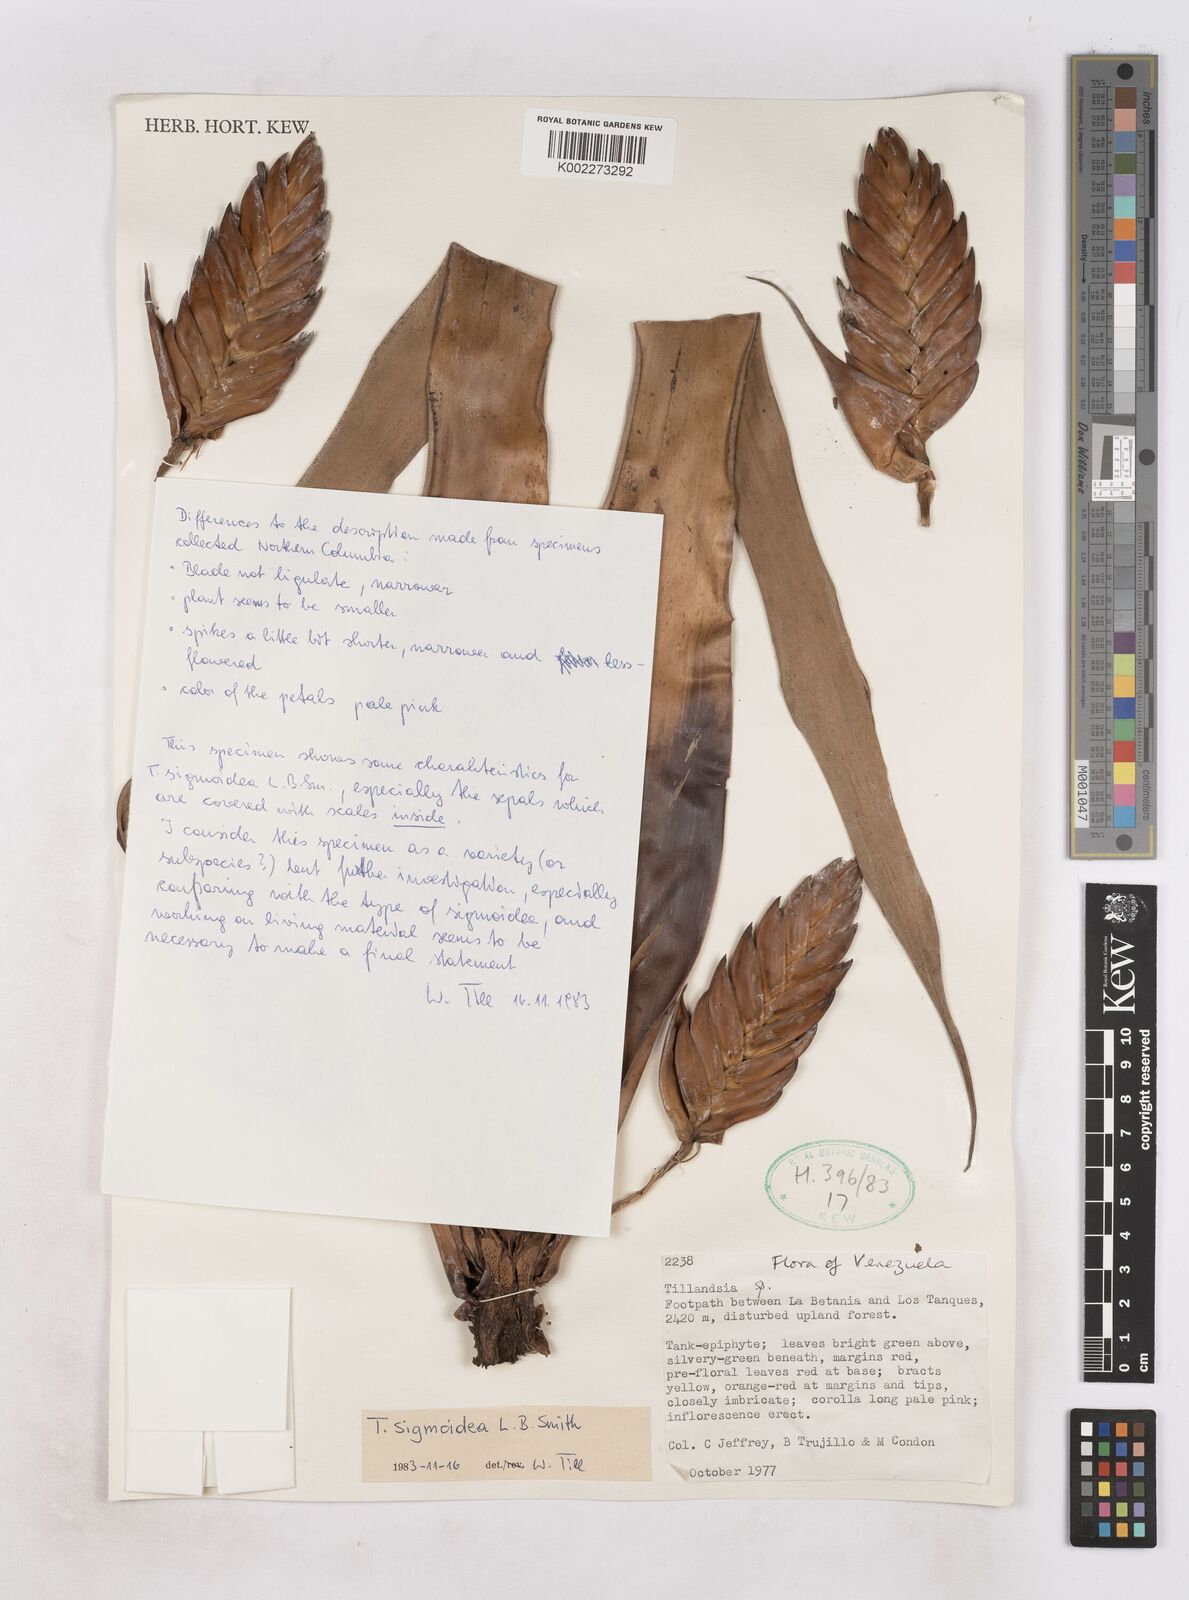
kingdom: Plantae
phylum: Tracheophyta
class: Liliopsida
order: Poales
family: Bromeliaceae
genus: Tillandsia
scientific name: Tillandsia sigmoidea
